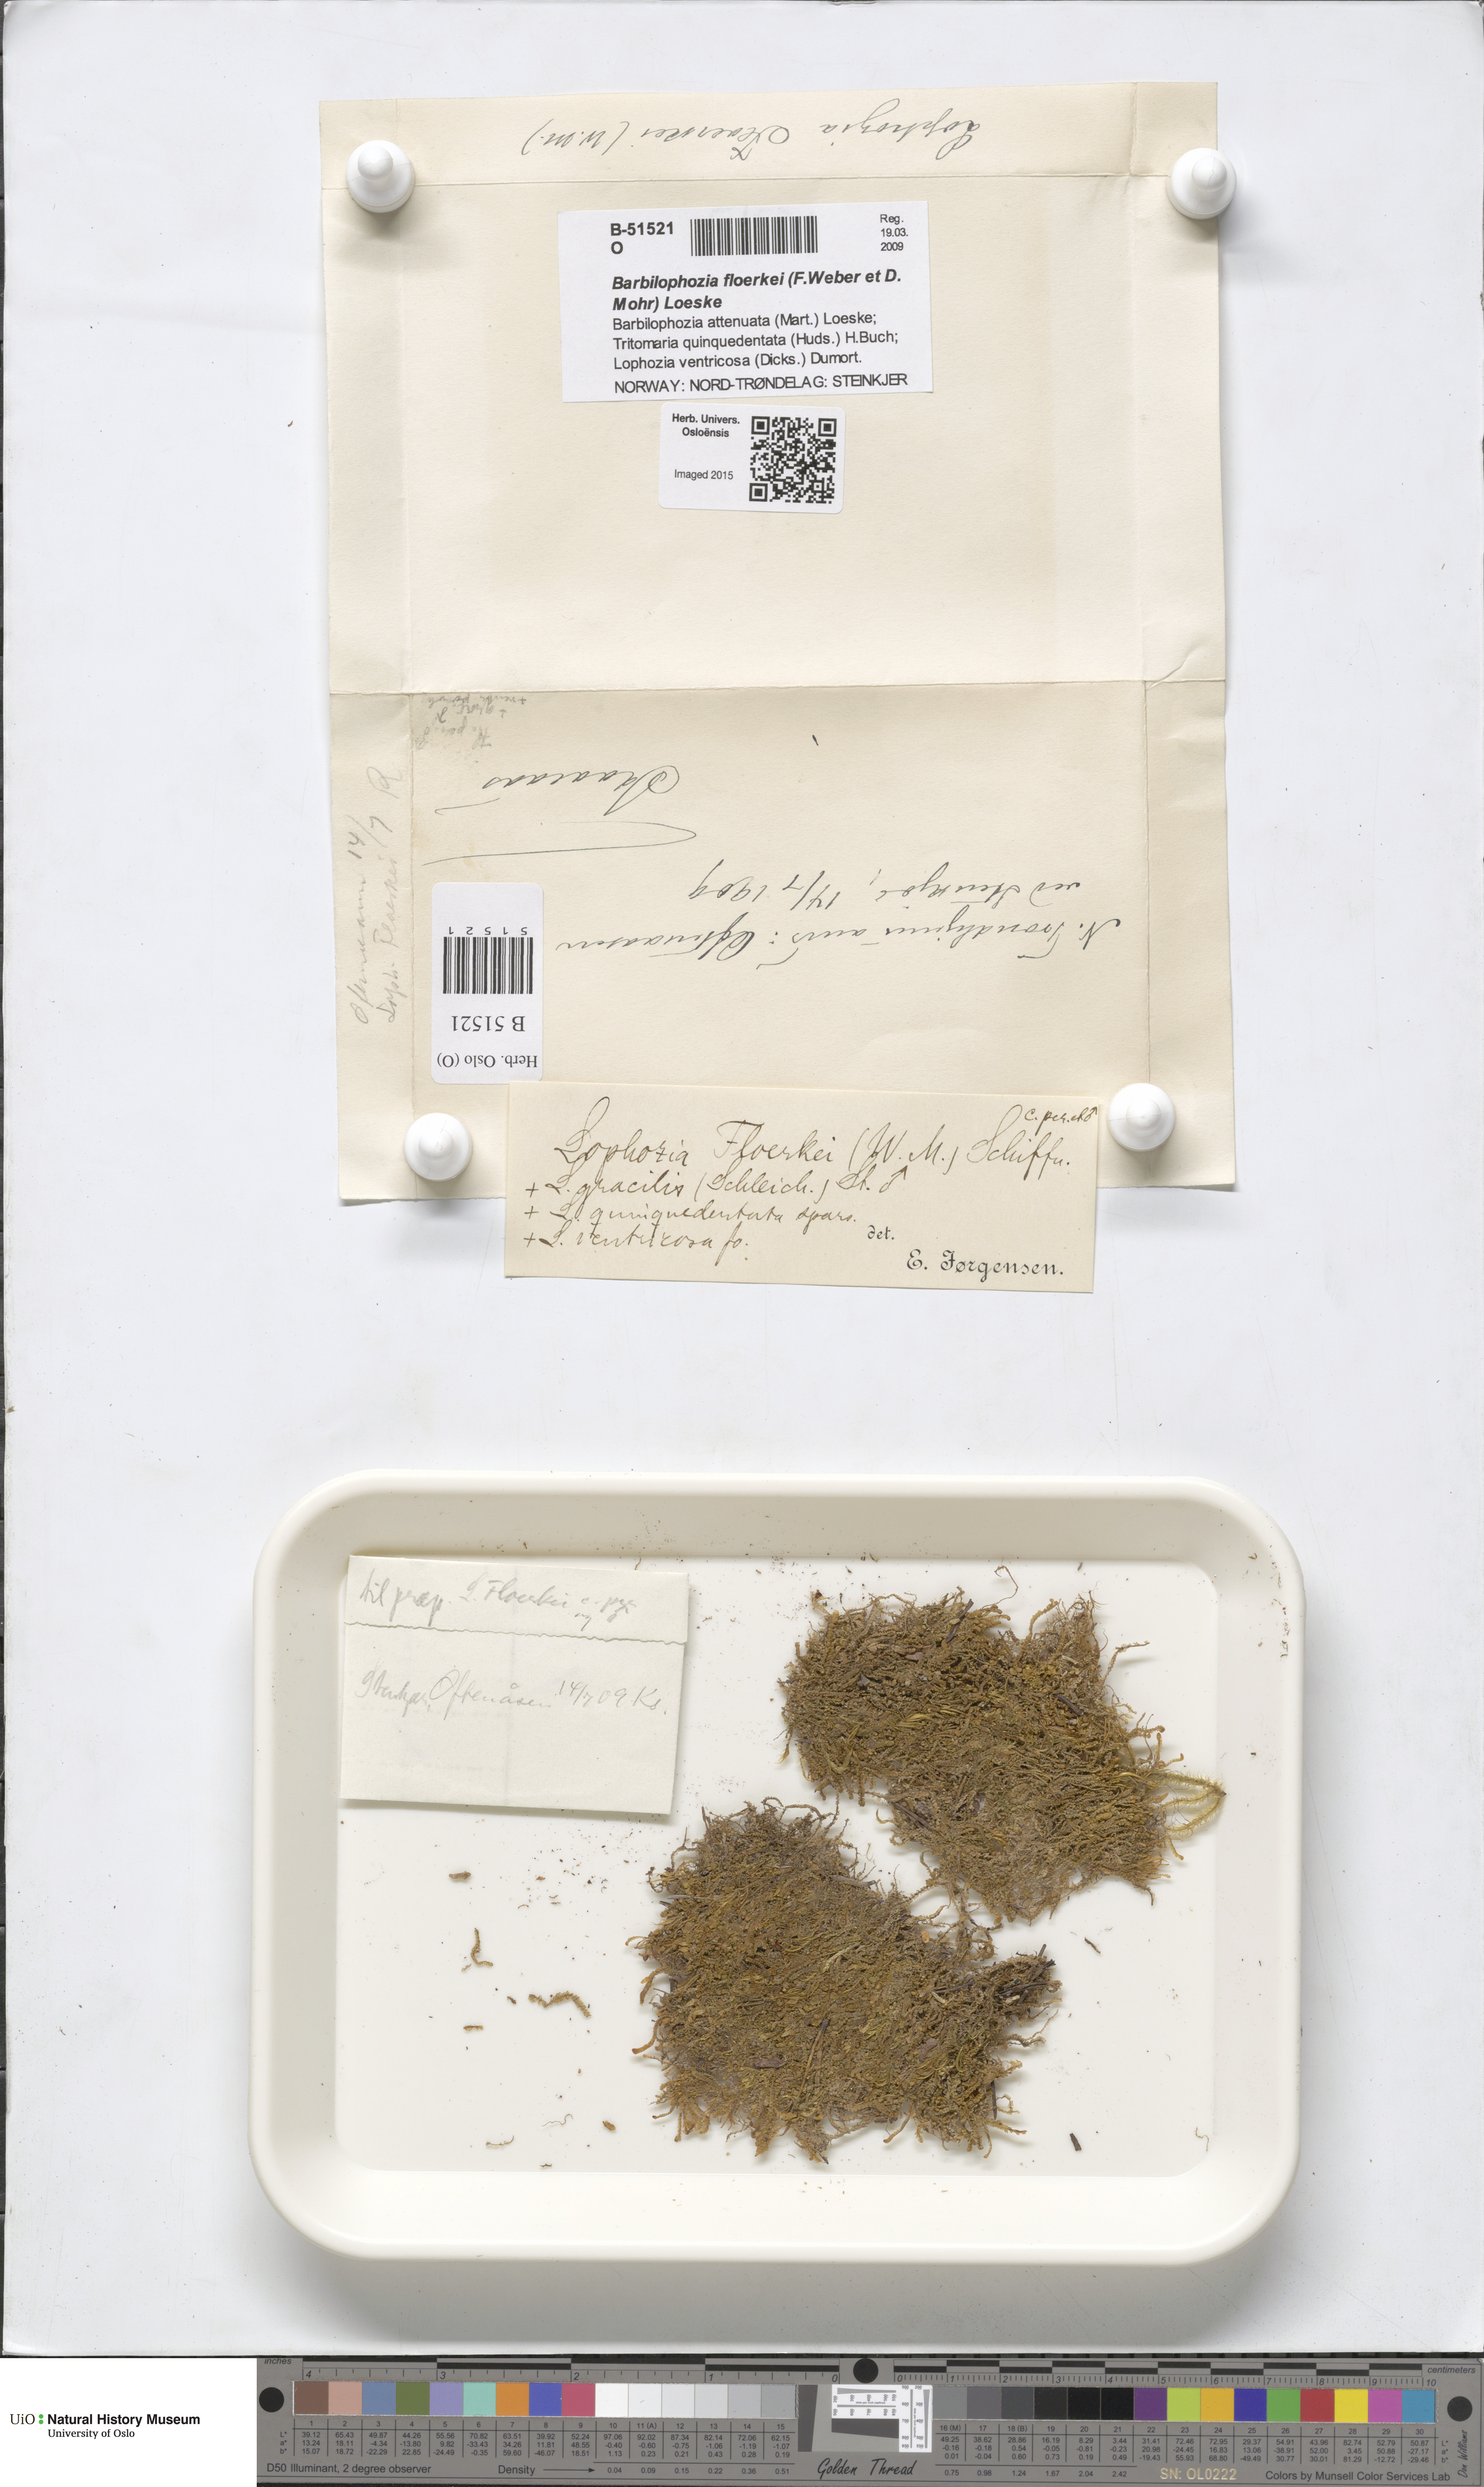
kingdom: Plantae
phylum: Marchantiophyta
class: Jungermanniopsida
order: Jungermanniales
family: Anastrophyllaceae
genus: Neoorthocaulis
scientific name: Neoorthocaulis floerkei
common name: Floerke's barbilophozia
